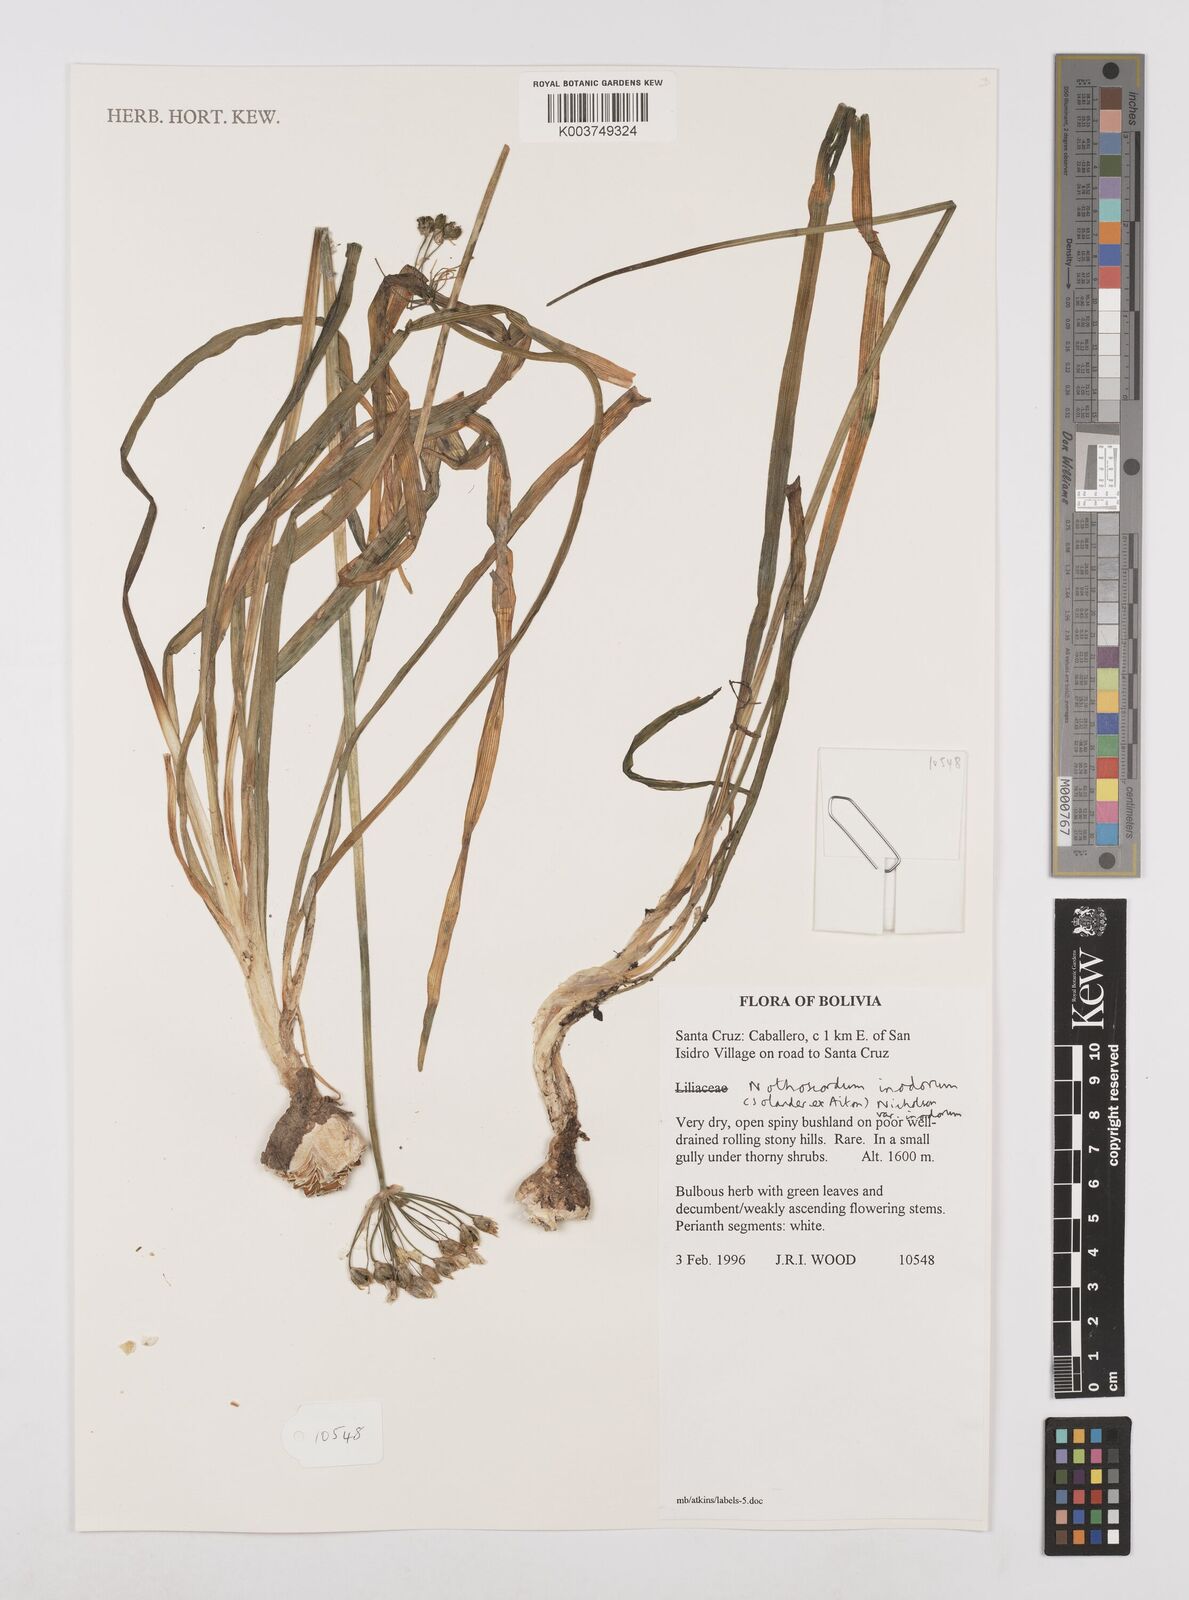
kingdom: Plantae
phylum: Tracheophyta
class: Liliopsida
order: Asparagales
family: Amaryllidaceae
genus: Allium
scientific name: Allium neapolitanum
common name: Neapolitan garlic
